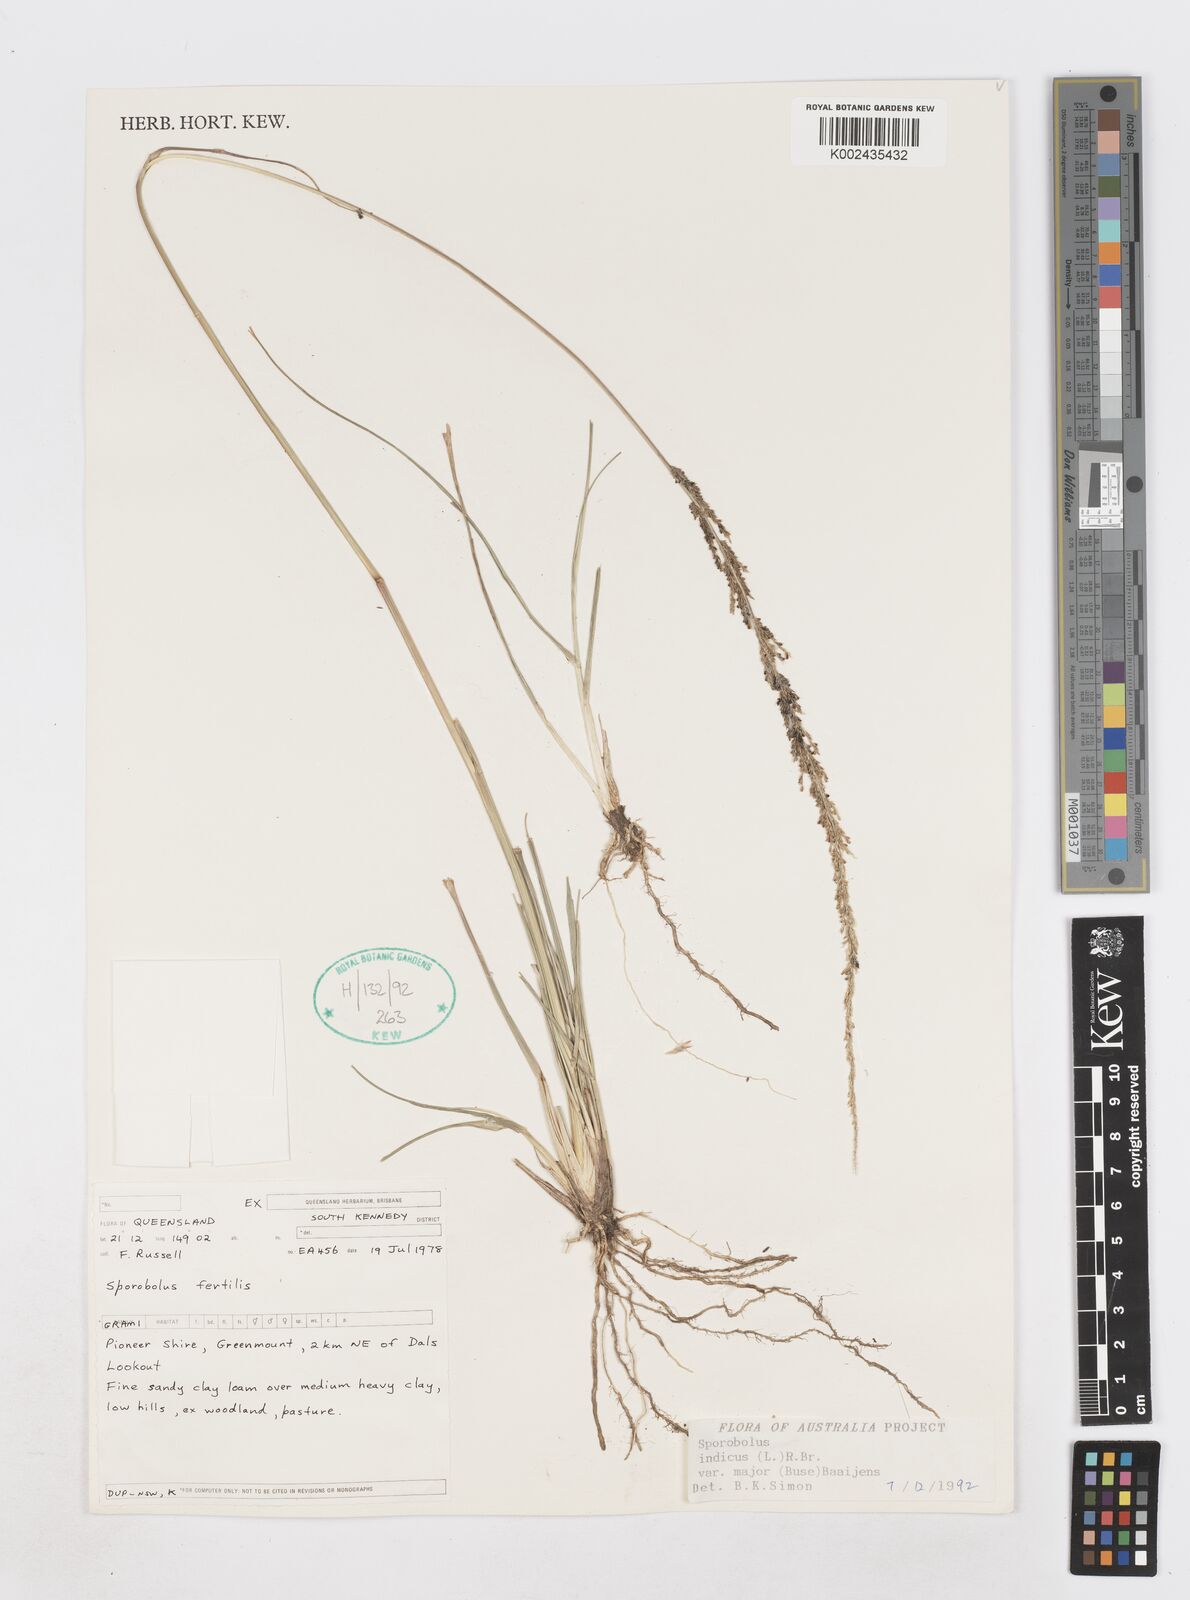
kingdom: Plantae
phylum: Tracheophyta
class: Liliopsida
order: Poales
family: Poaceae
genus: Sporobolus
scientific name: Sporobolus fertilis
